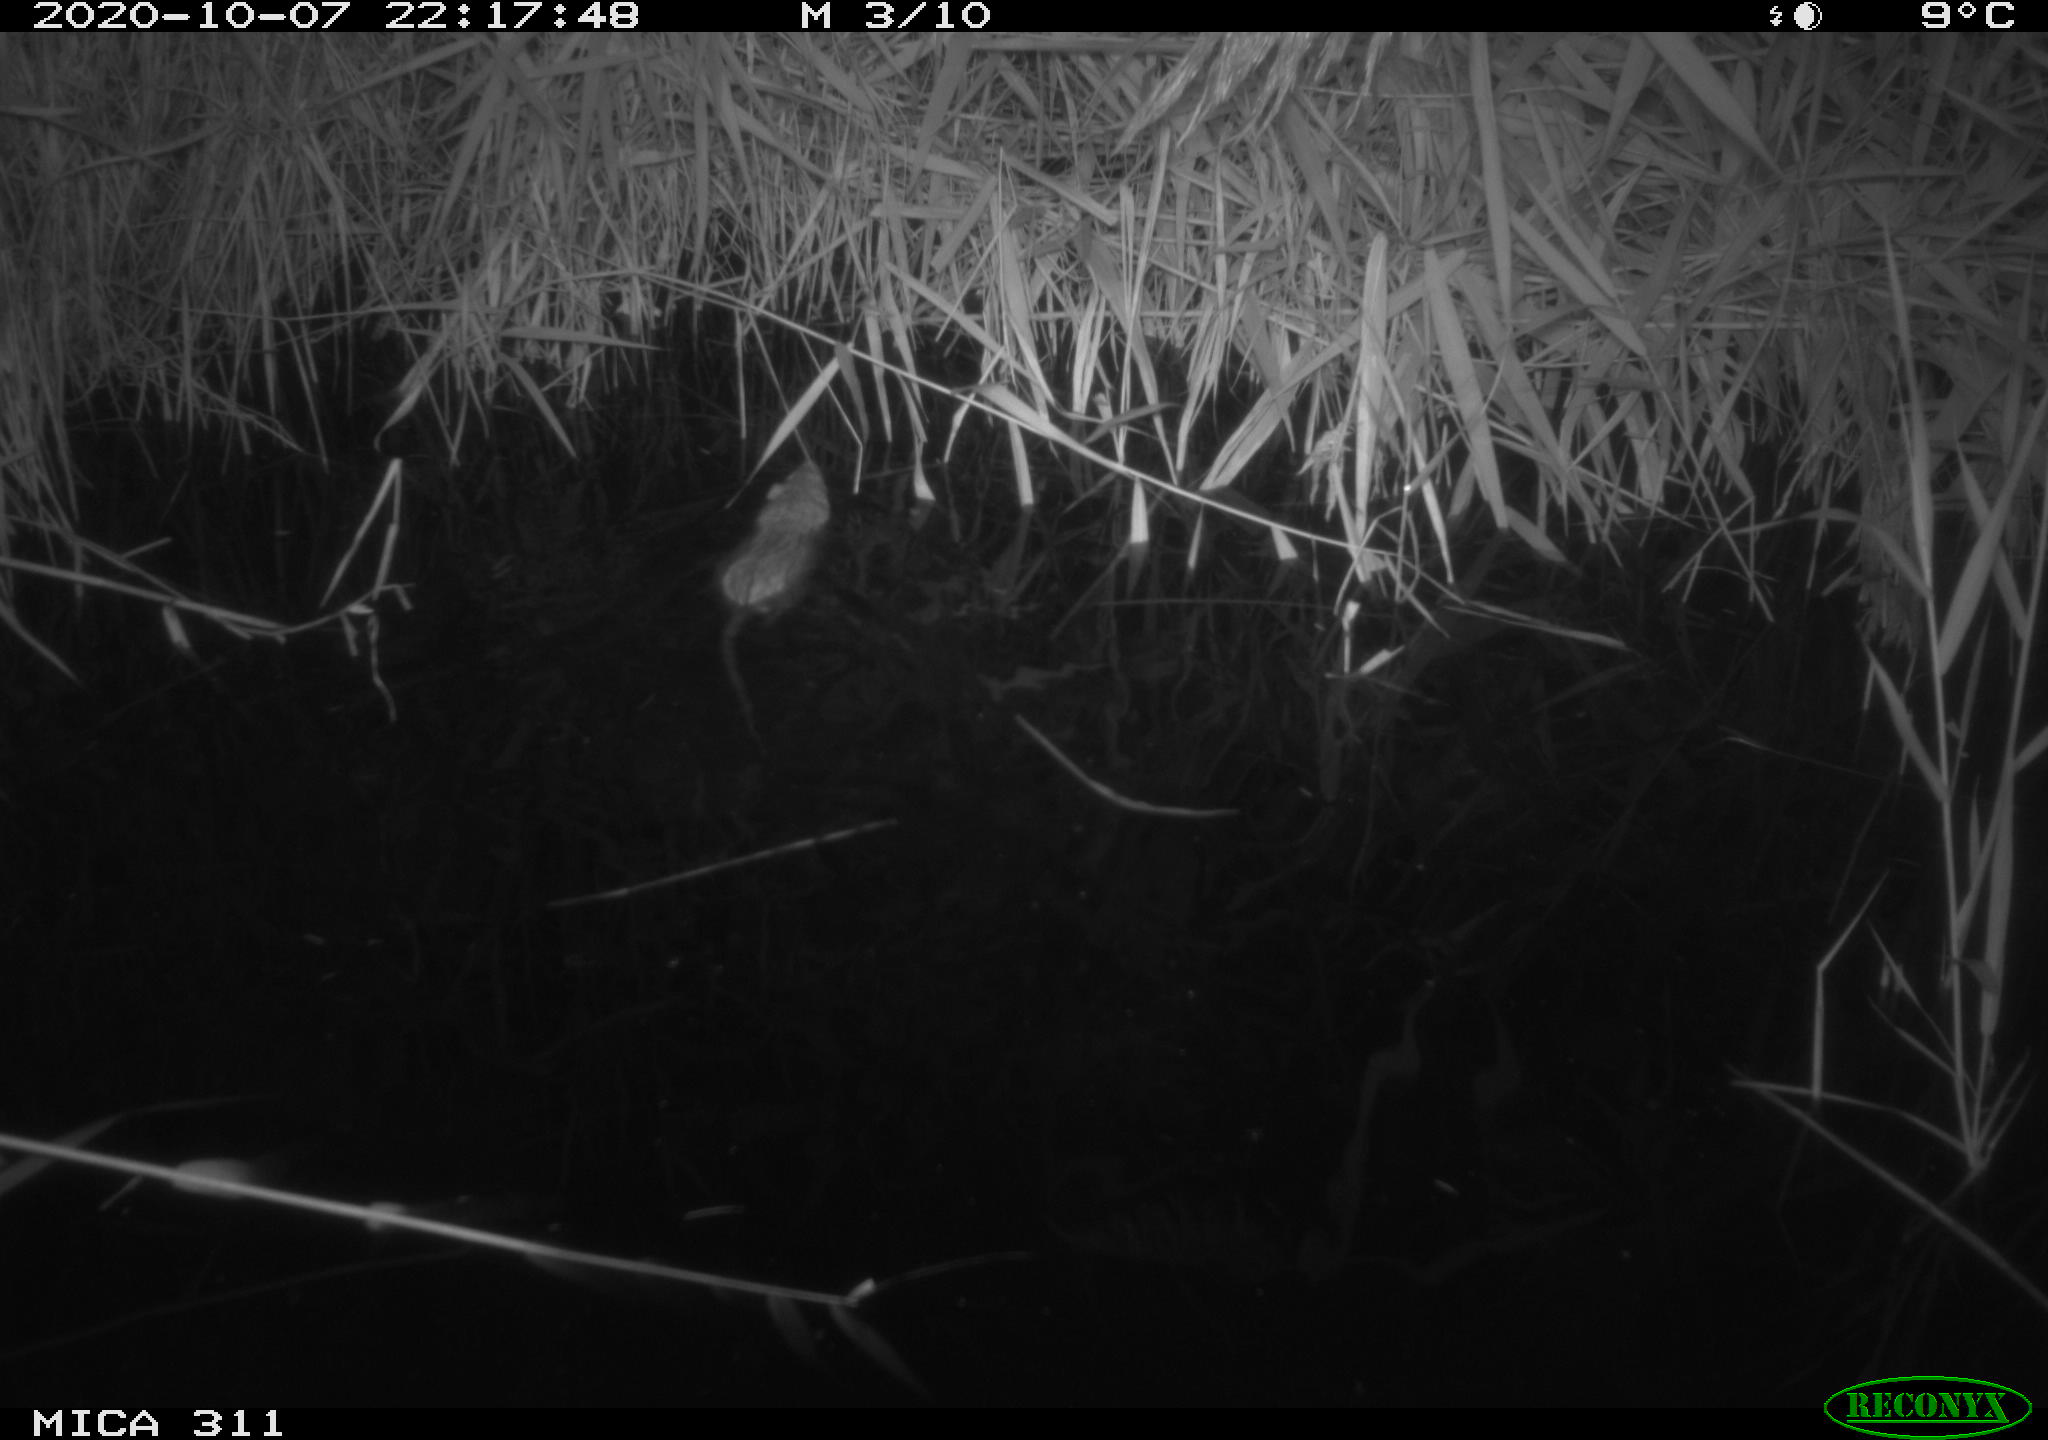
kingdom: Animalia
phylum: Chordata
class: Mammalia
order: Rodentia
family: Muridae
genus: Rattus
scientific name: Rattus norvegicus
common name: Brown rat
